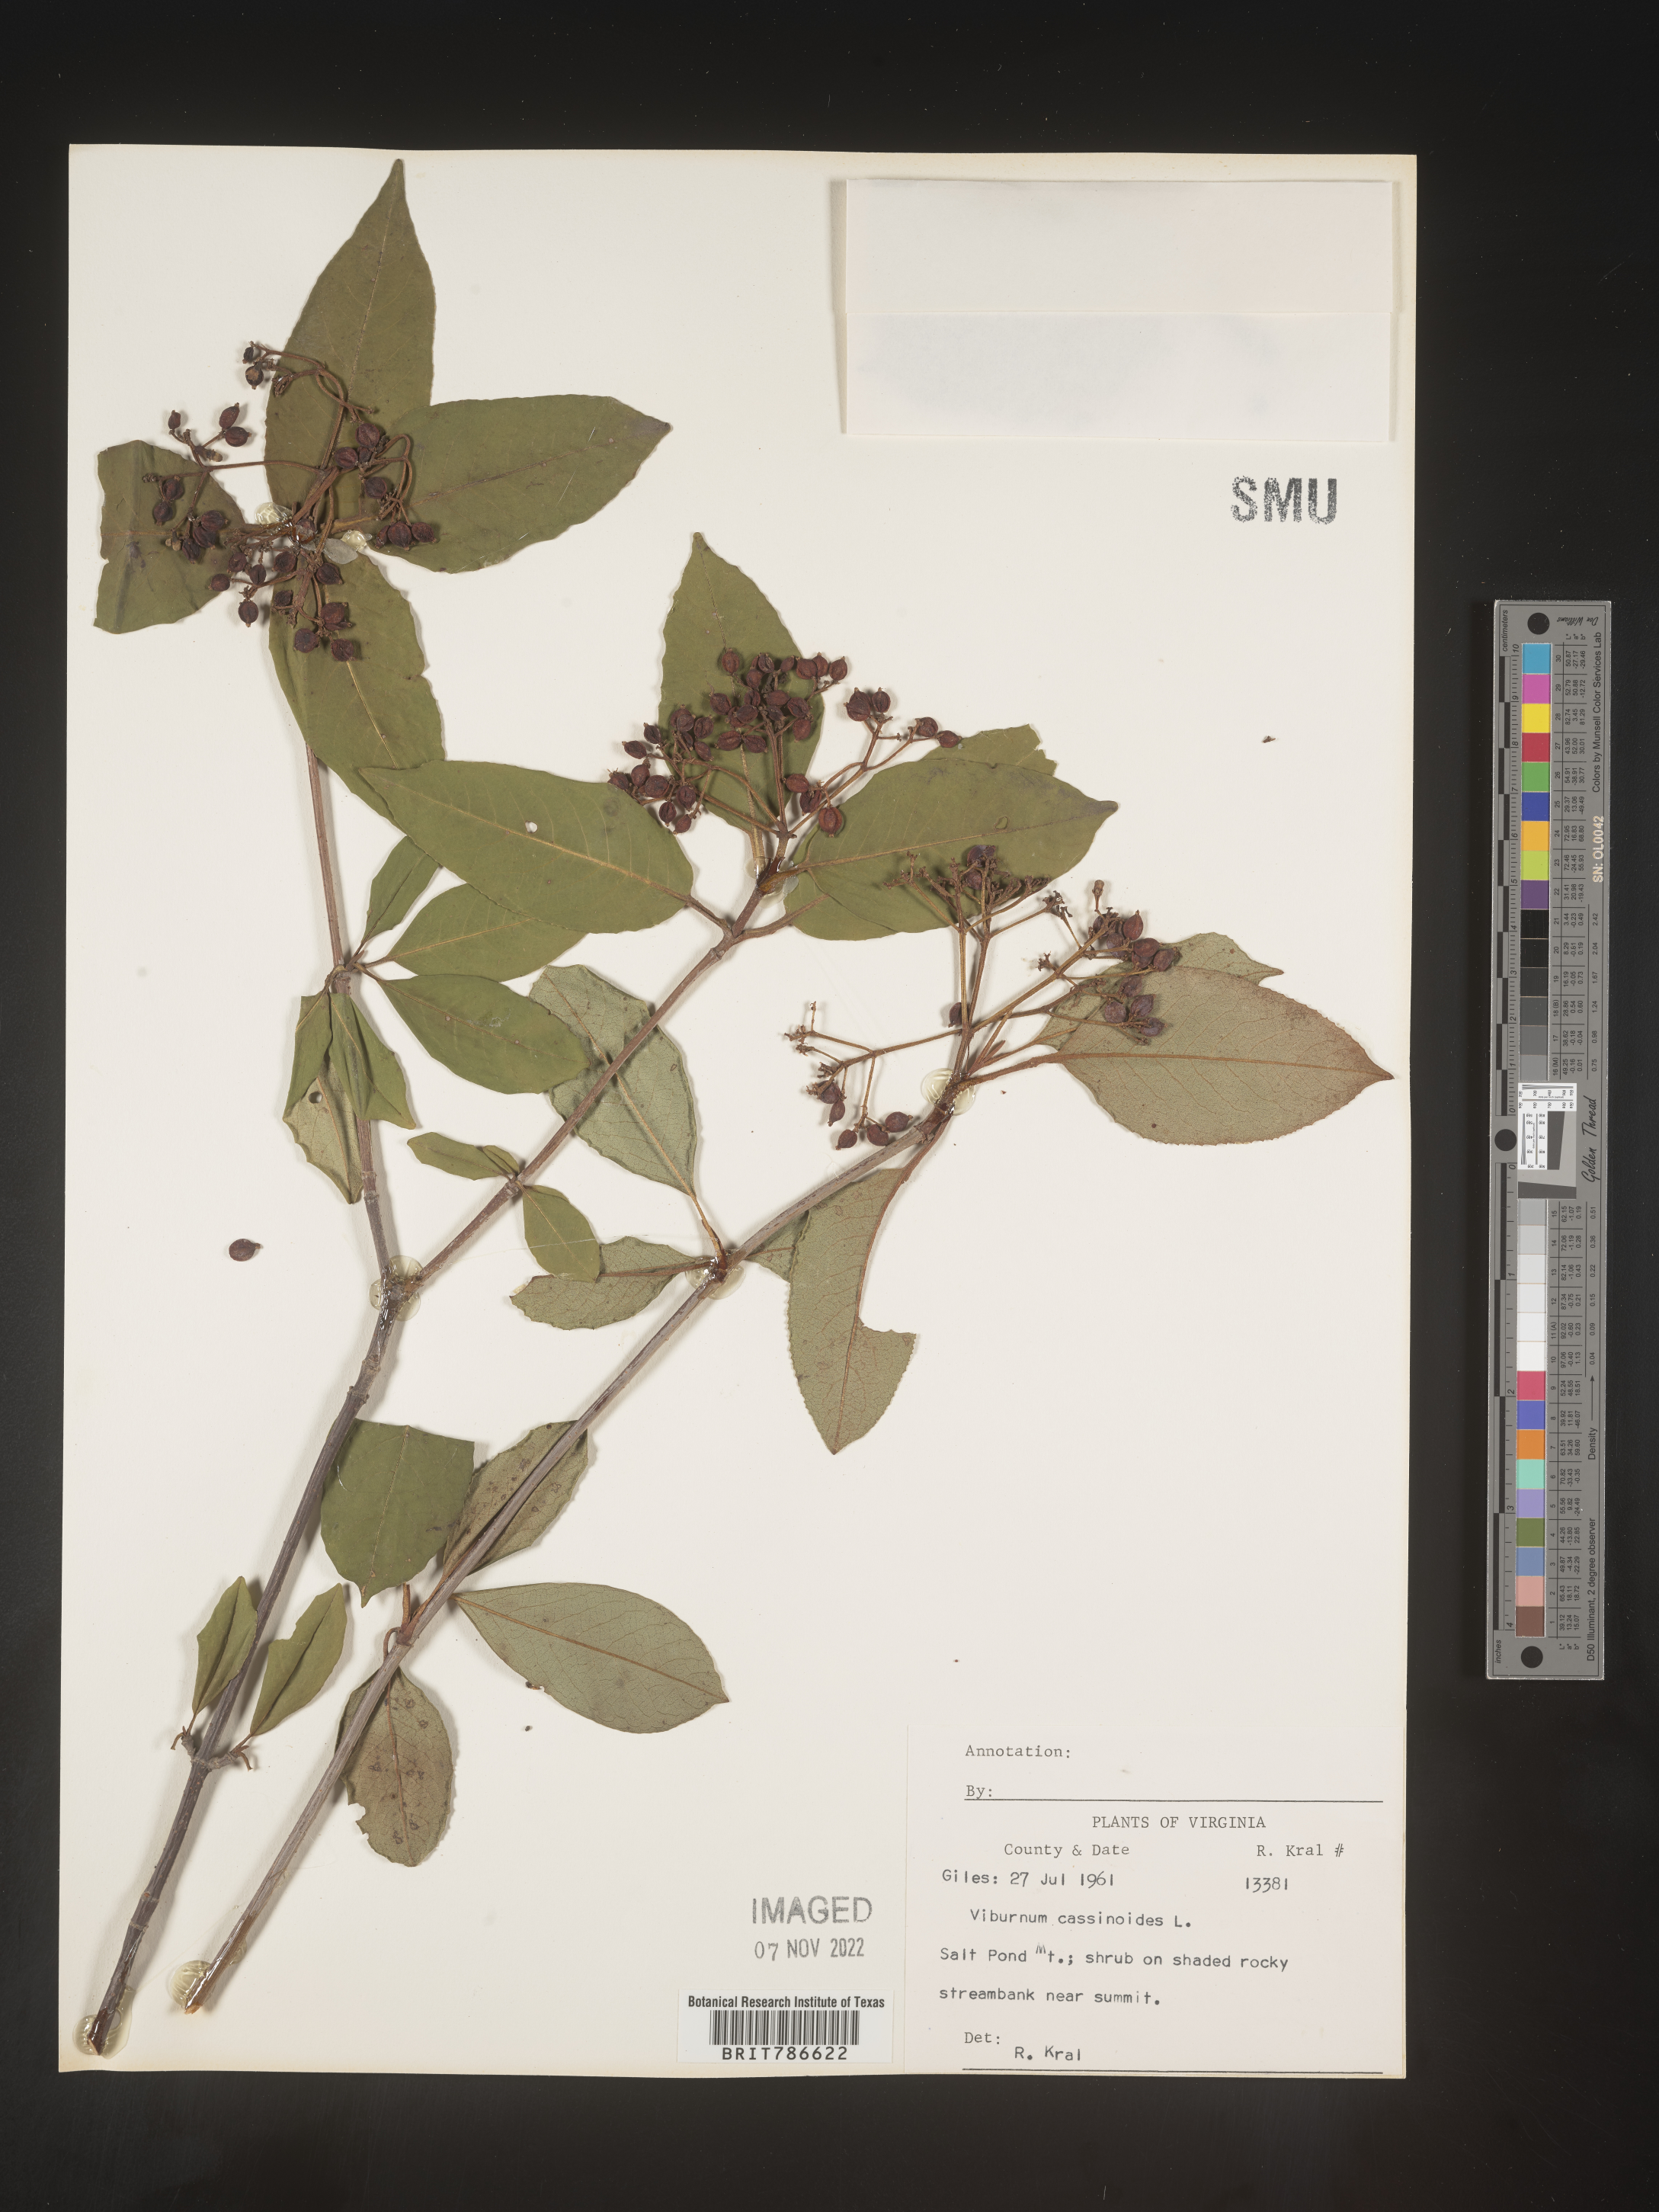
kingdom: Plantae
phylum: Tracheophyta
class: Magnoliopsida
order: Dipsacales
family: Viburnaceae
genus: Viburnum
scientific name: Viburnum cassinoides
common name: Swamp haw
